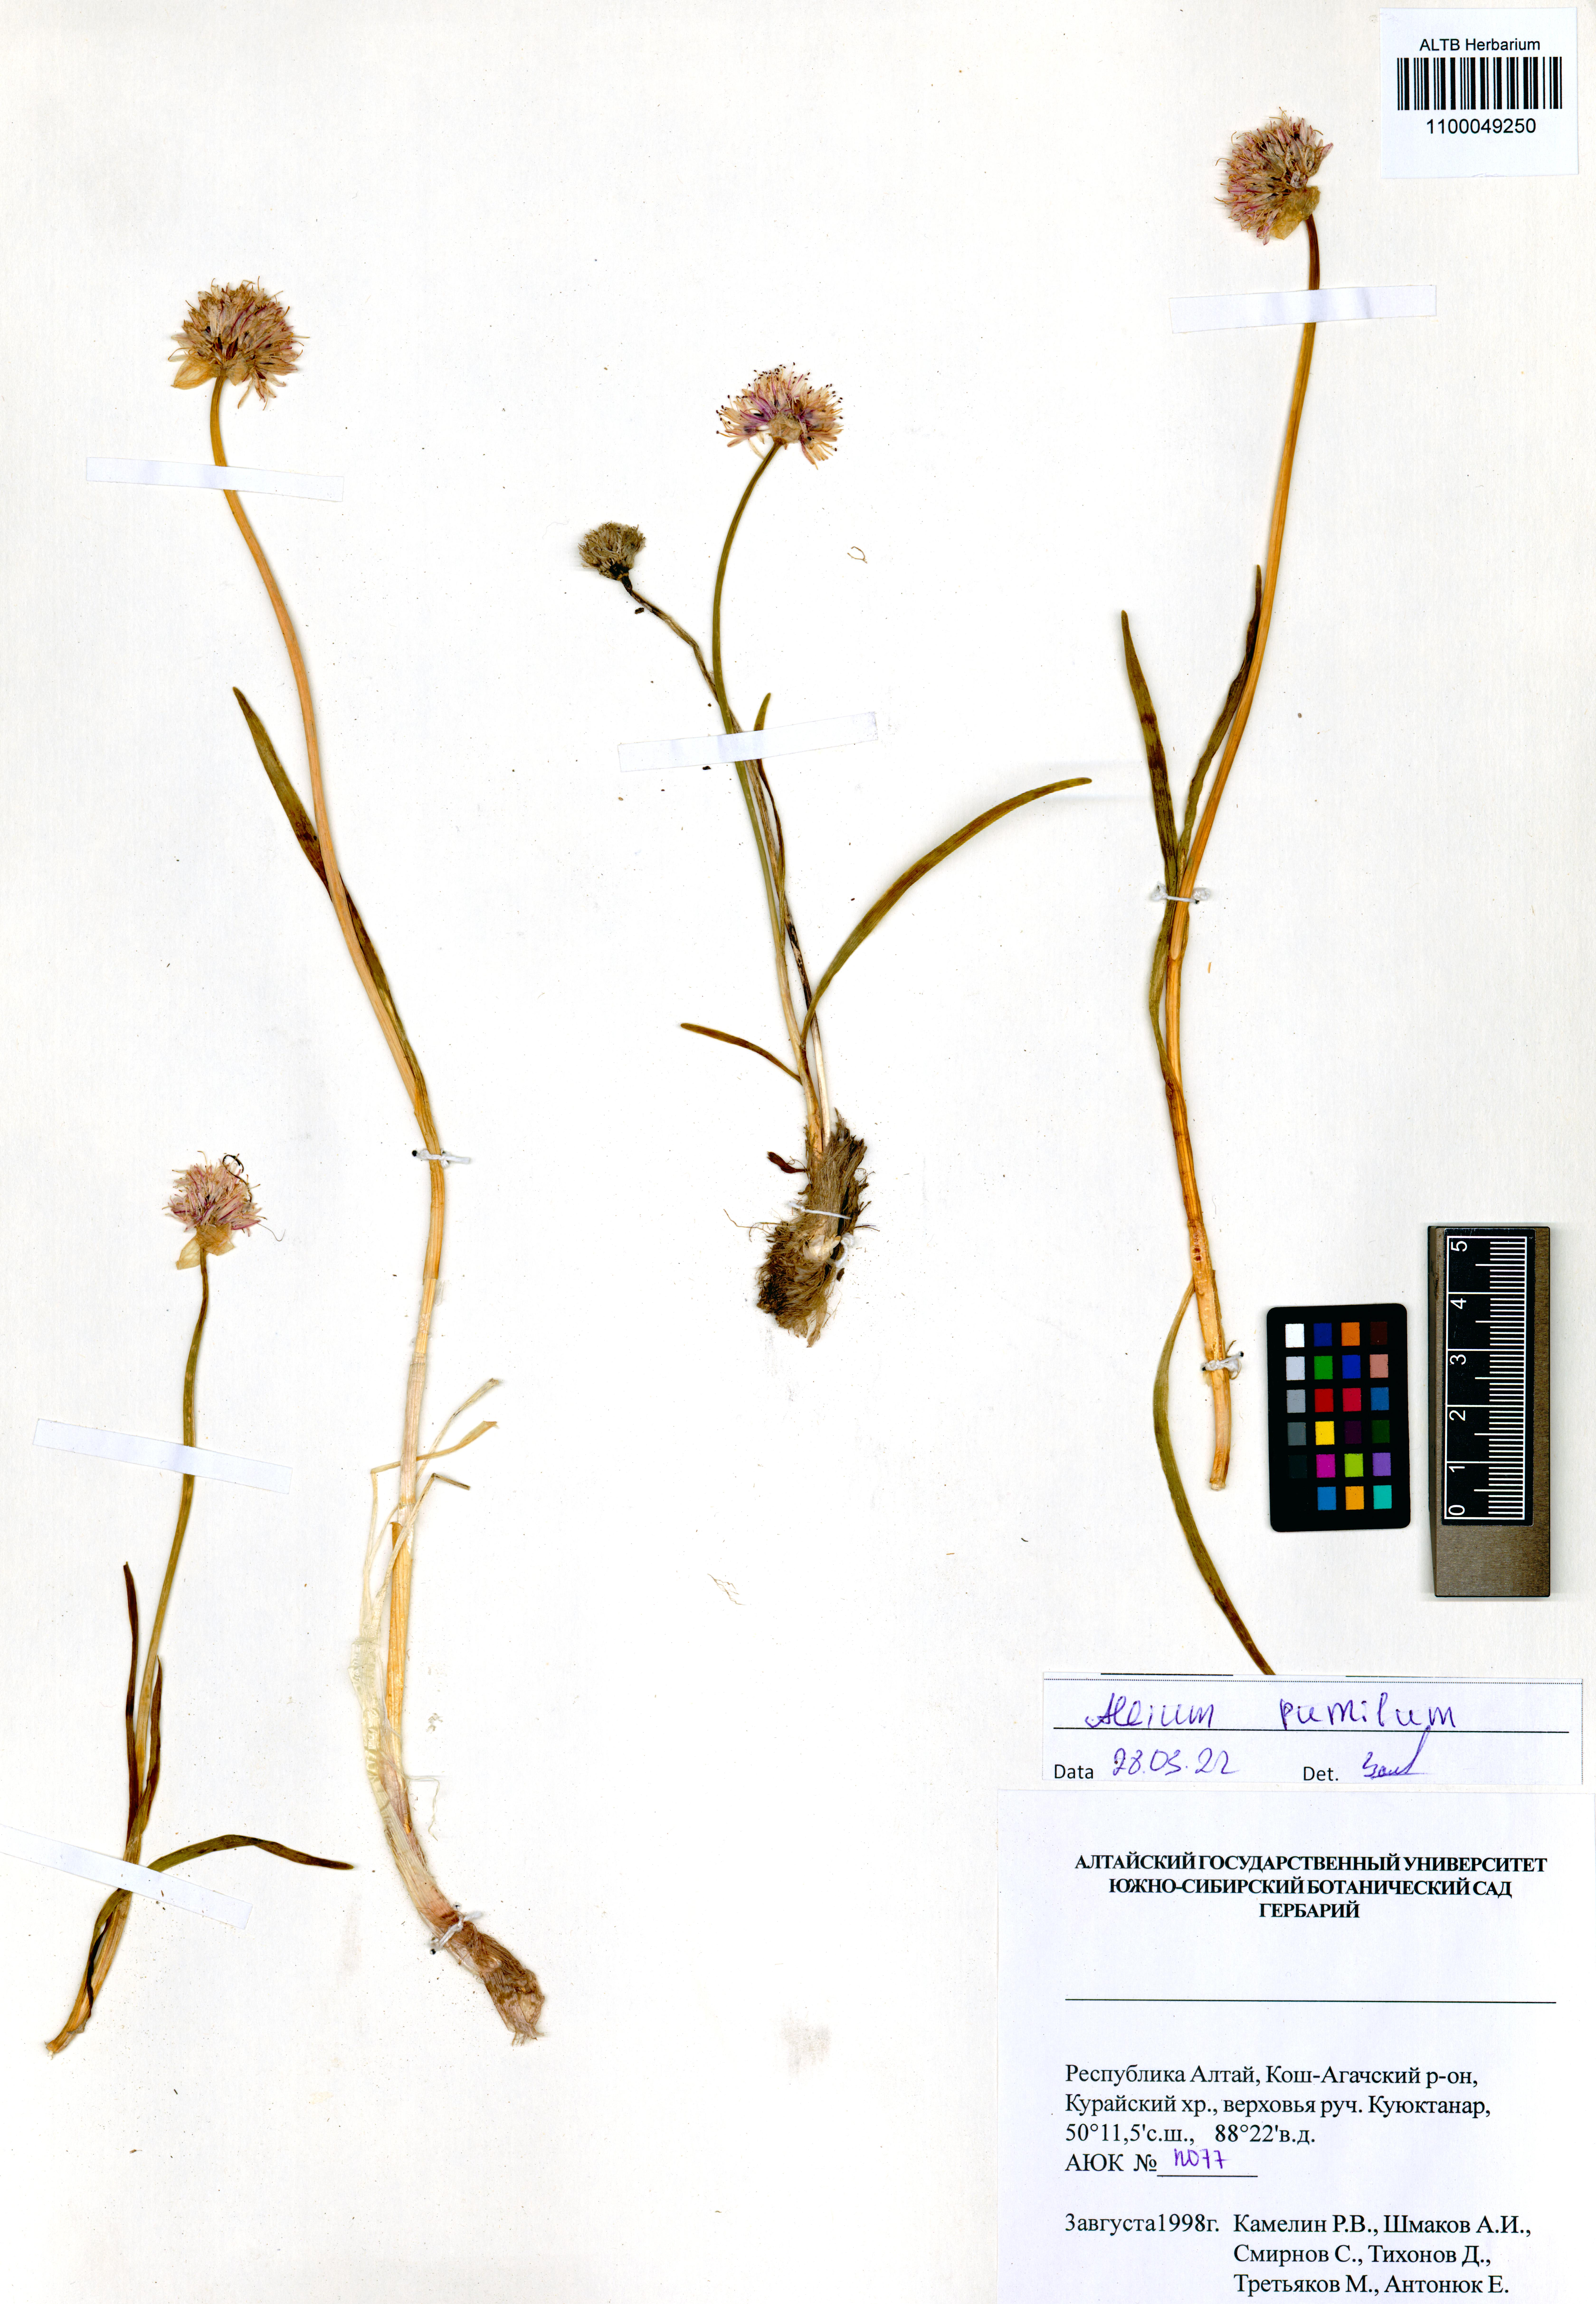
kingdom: Plantae
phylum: Tracheophyta
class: Liliopsida
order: Asparagales
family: Amaryllidaceae
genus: Allium
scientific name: Allium pumilum
